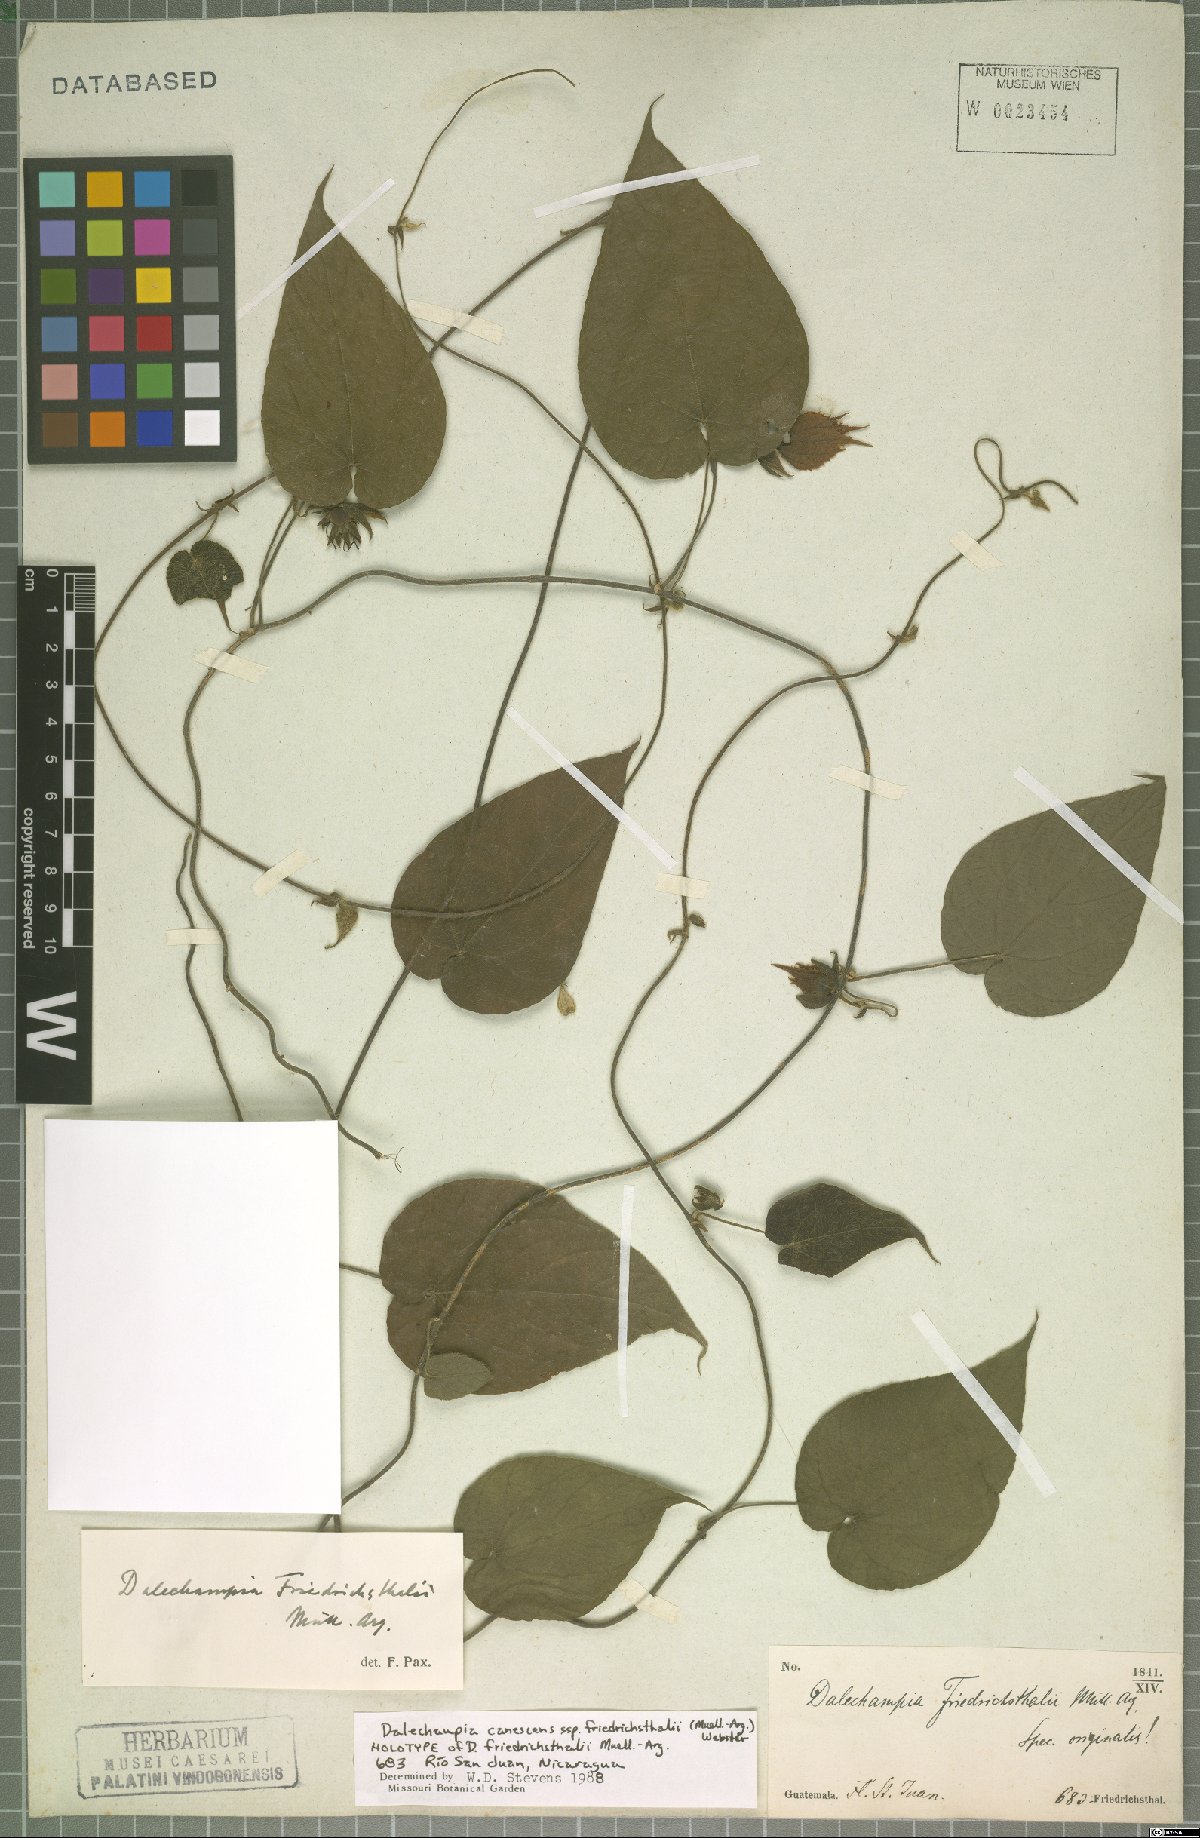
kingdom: Plantae
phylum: Tracheophyta
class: Magnoliopsida
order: Malpighiales
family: Euphorbiaceae
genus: Dalechampia
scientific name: Dalechampia canescens
